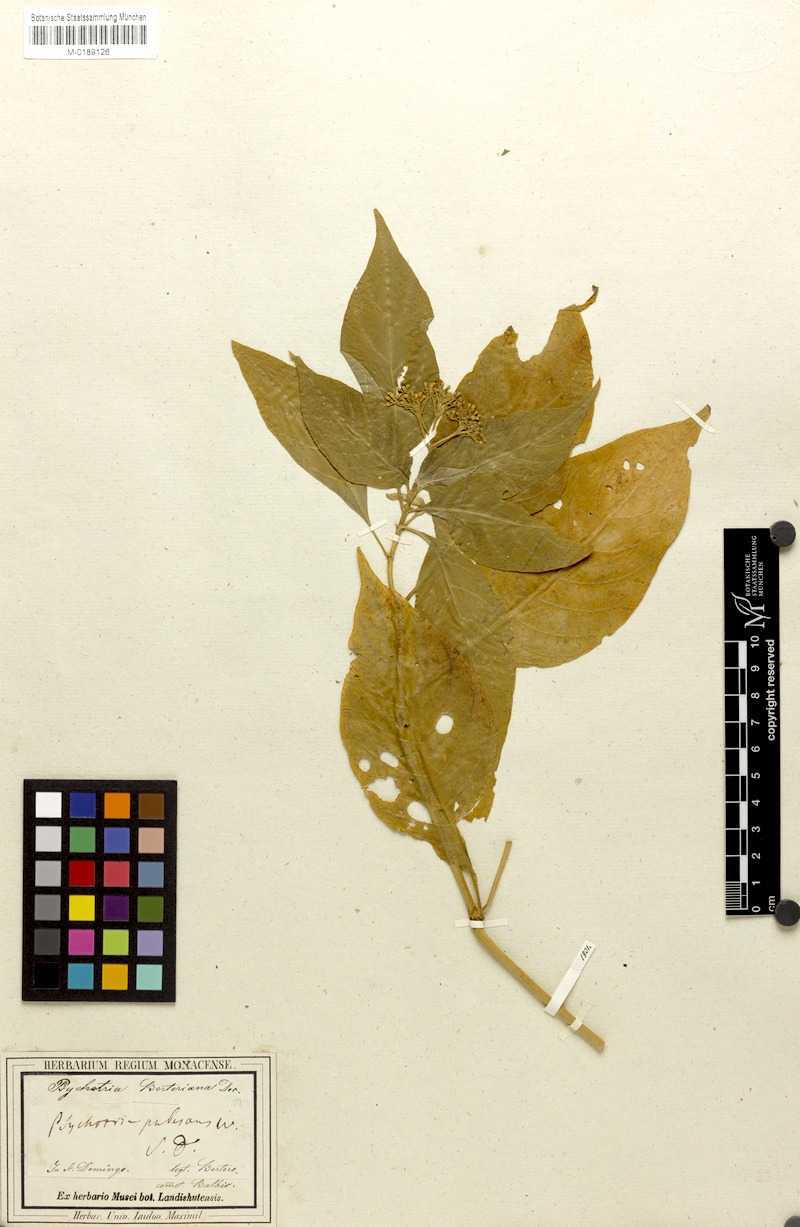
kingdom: Plantae
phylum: Tracheophyta
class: Magnoliopsida
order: Gentianales
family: Rubiaceae
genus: Palicourea
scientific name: Palicourea berteroana
